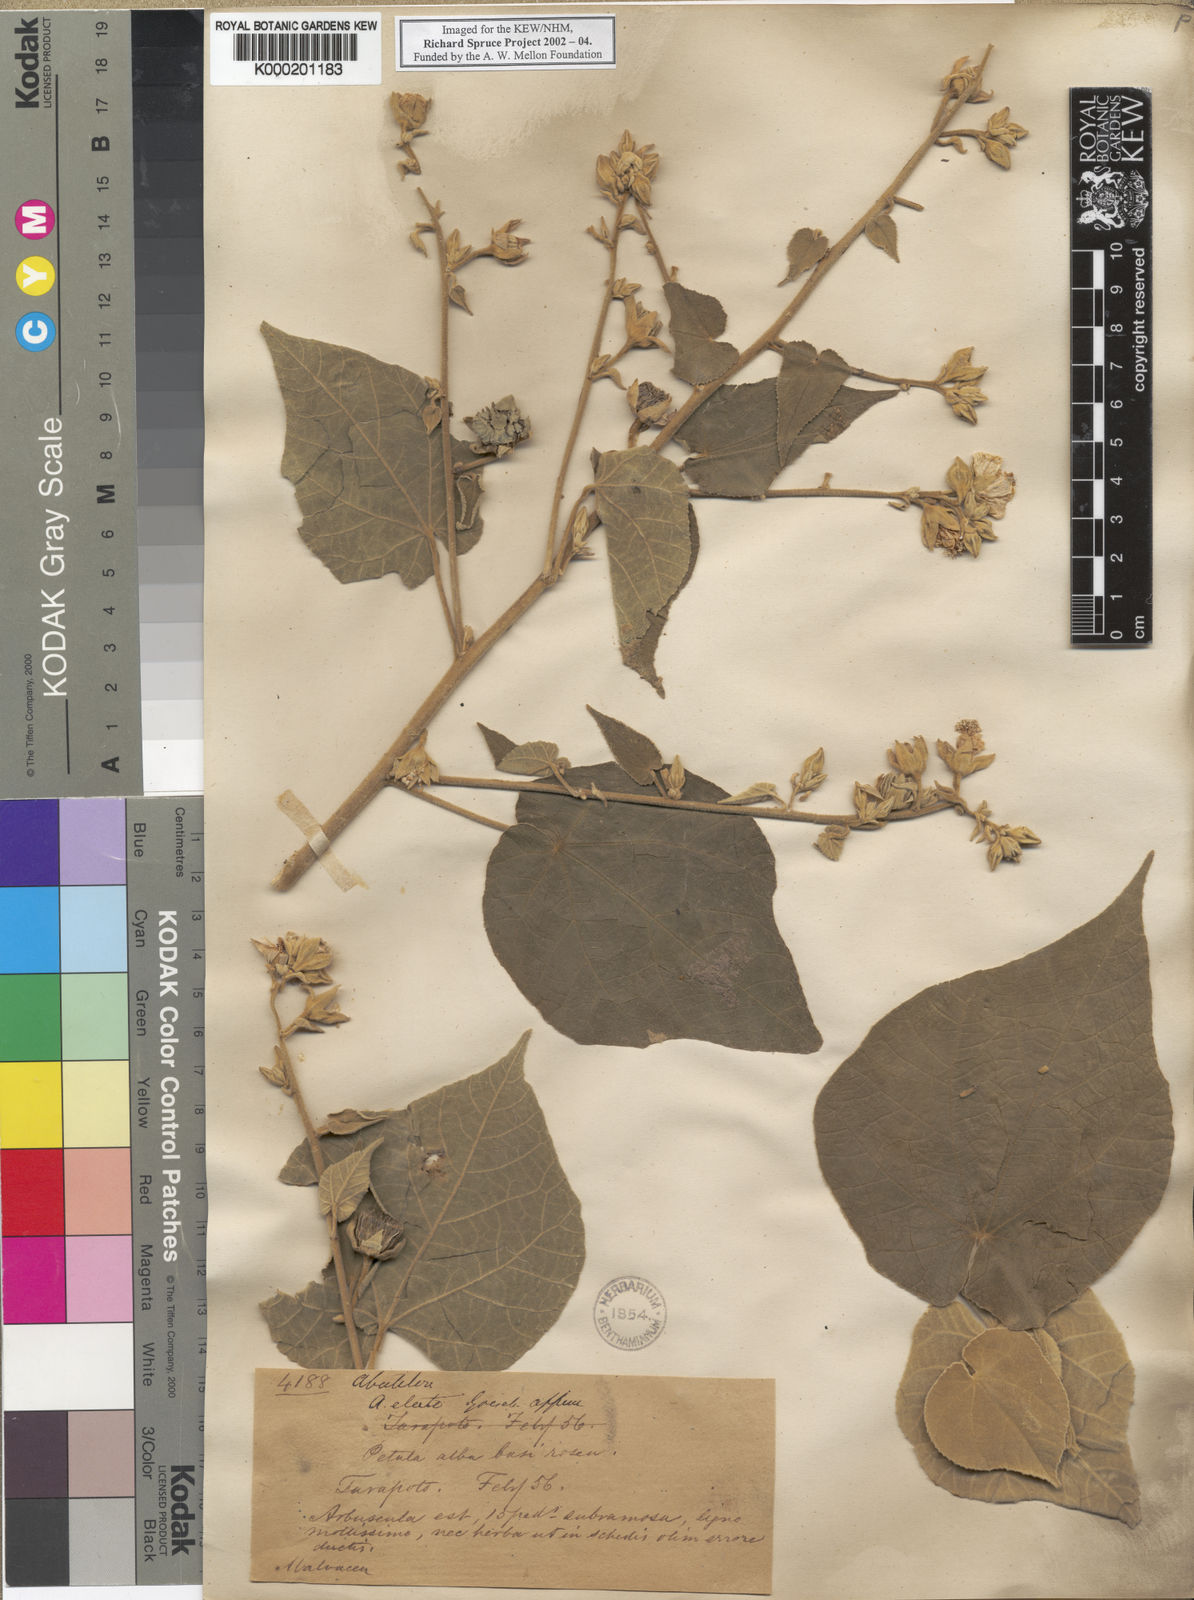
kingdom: Plantae
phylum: Tracheophyta
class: Magnoliopsida
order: Malvales
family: Malvaceae
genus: Abutilon
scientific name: Abutilon giganteum
